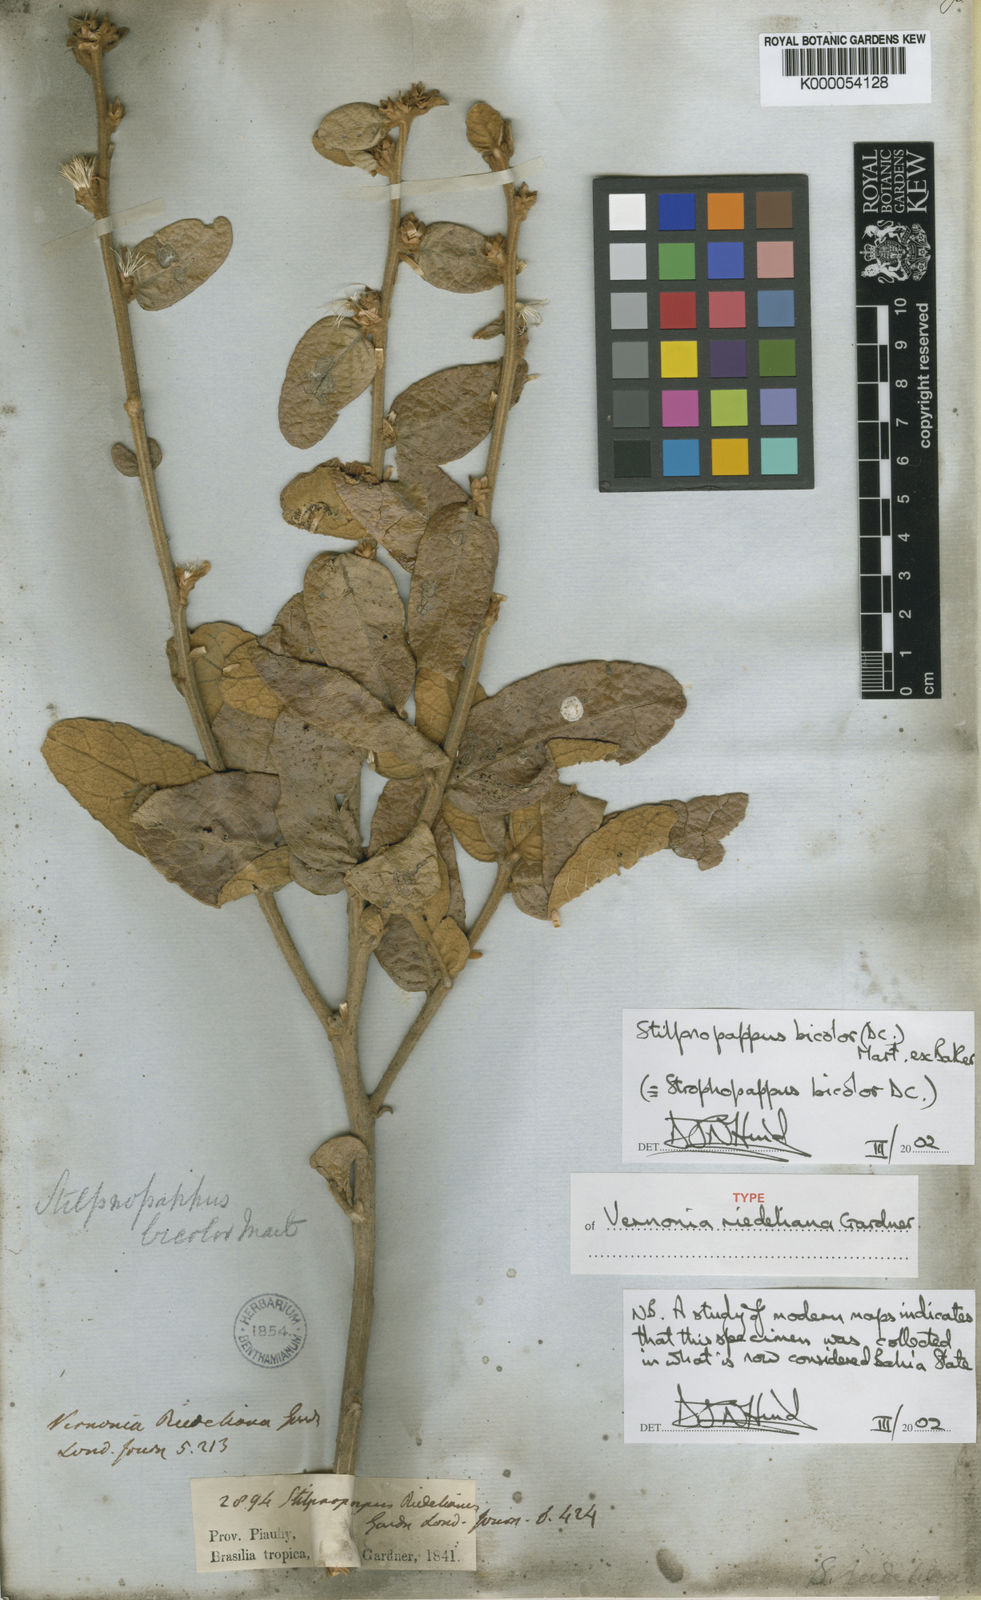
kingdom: Plantae
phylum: Tracheophyta
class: Magnoliopsida
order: Asterales
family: Asteraceae
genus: Stilpnopappus
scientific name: Stilpnopappus bicolor
